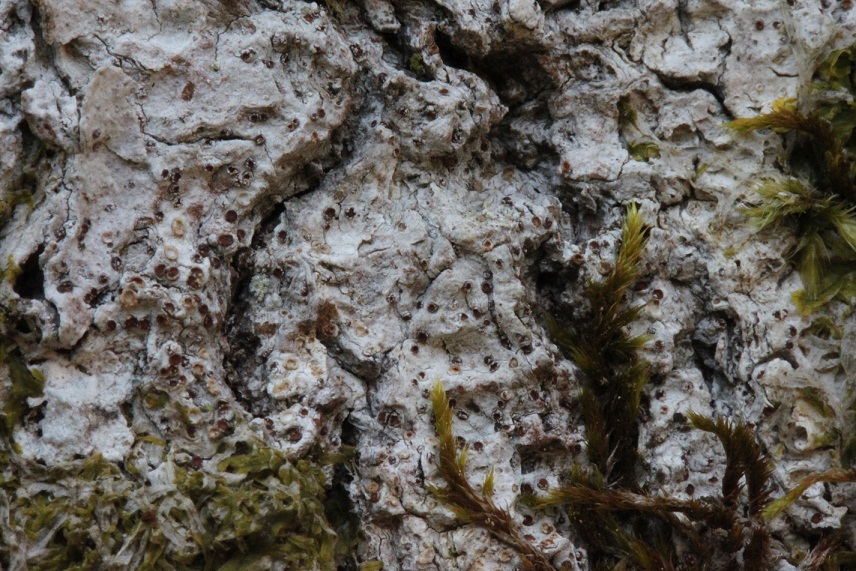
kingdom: Fungi
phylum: Ascomycota
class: Lecanoromycetes
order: Gyalectales
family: Gyalectaceae
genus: Pachyphiale
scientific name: Pachyphiale carneola
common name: rødbrun gammelskovslav
